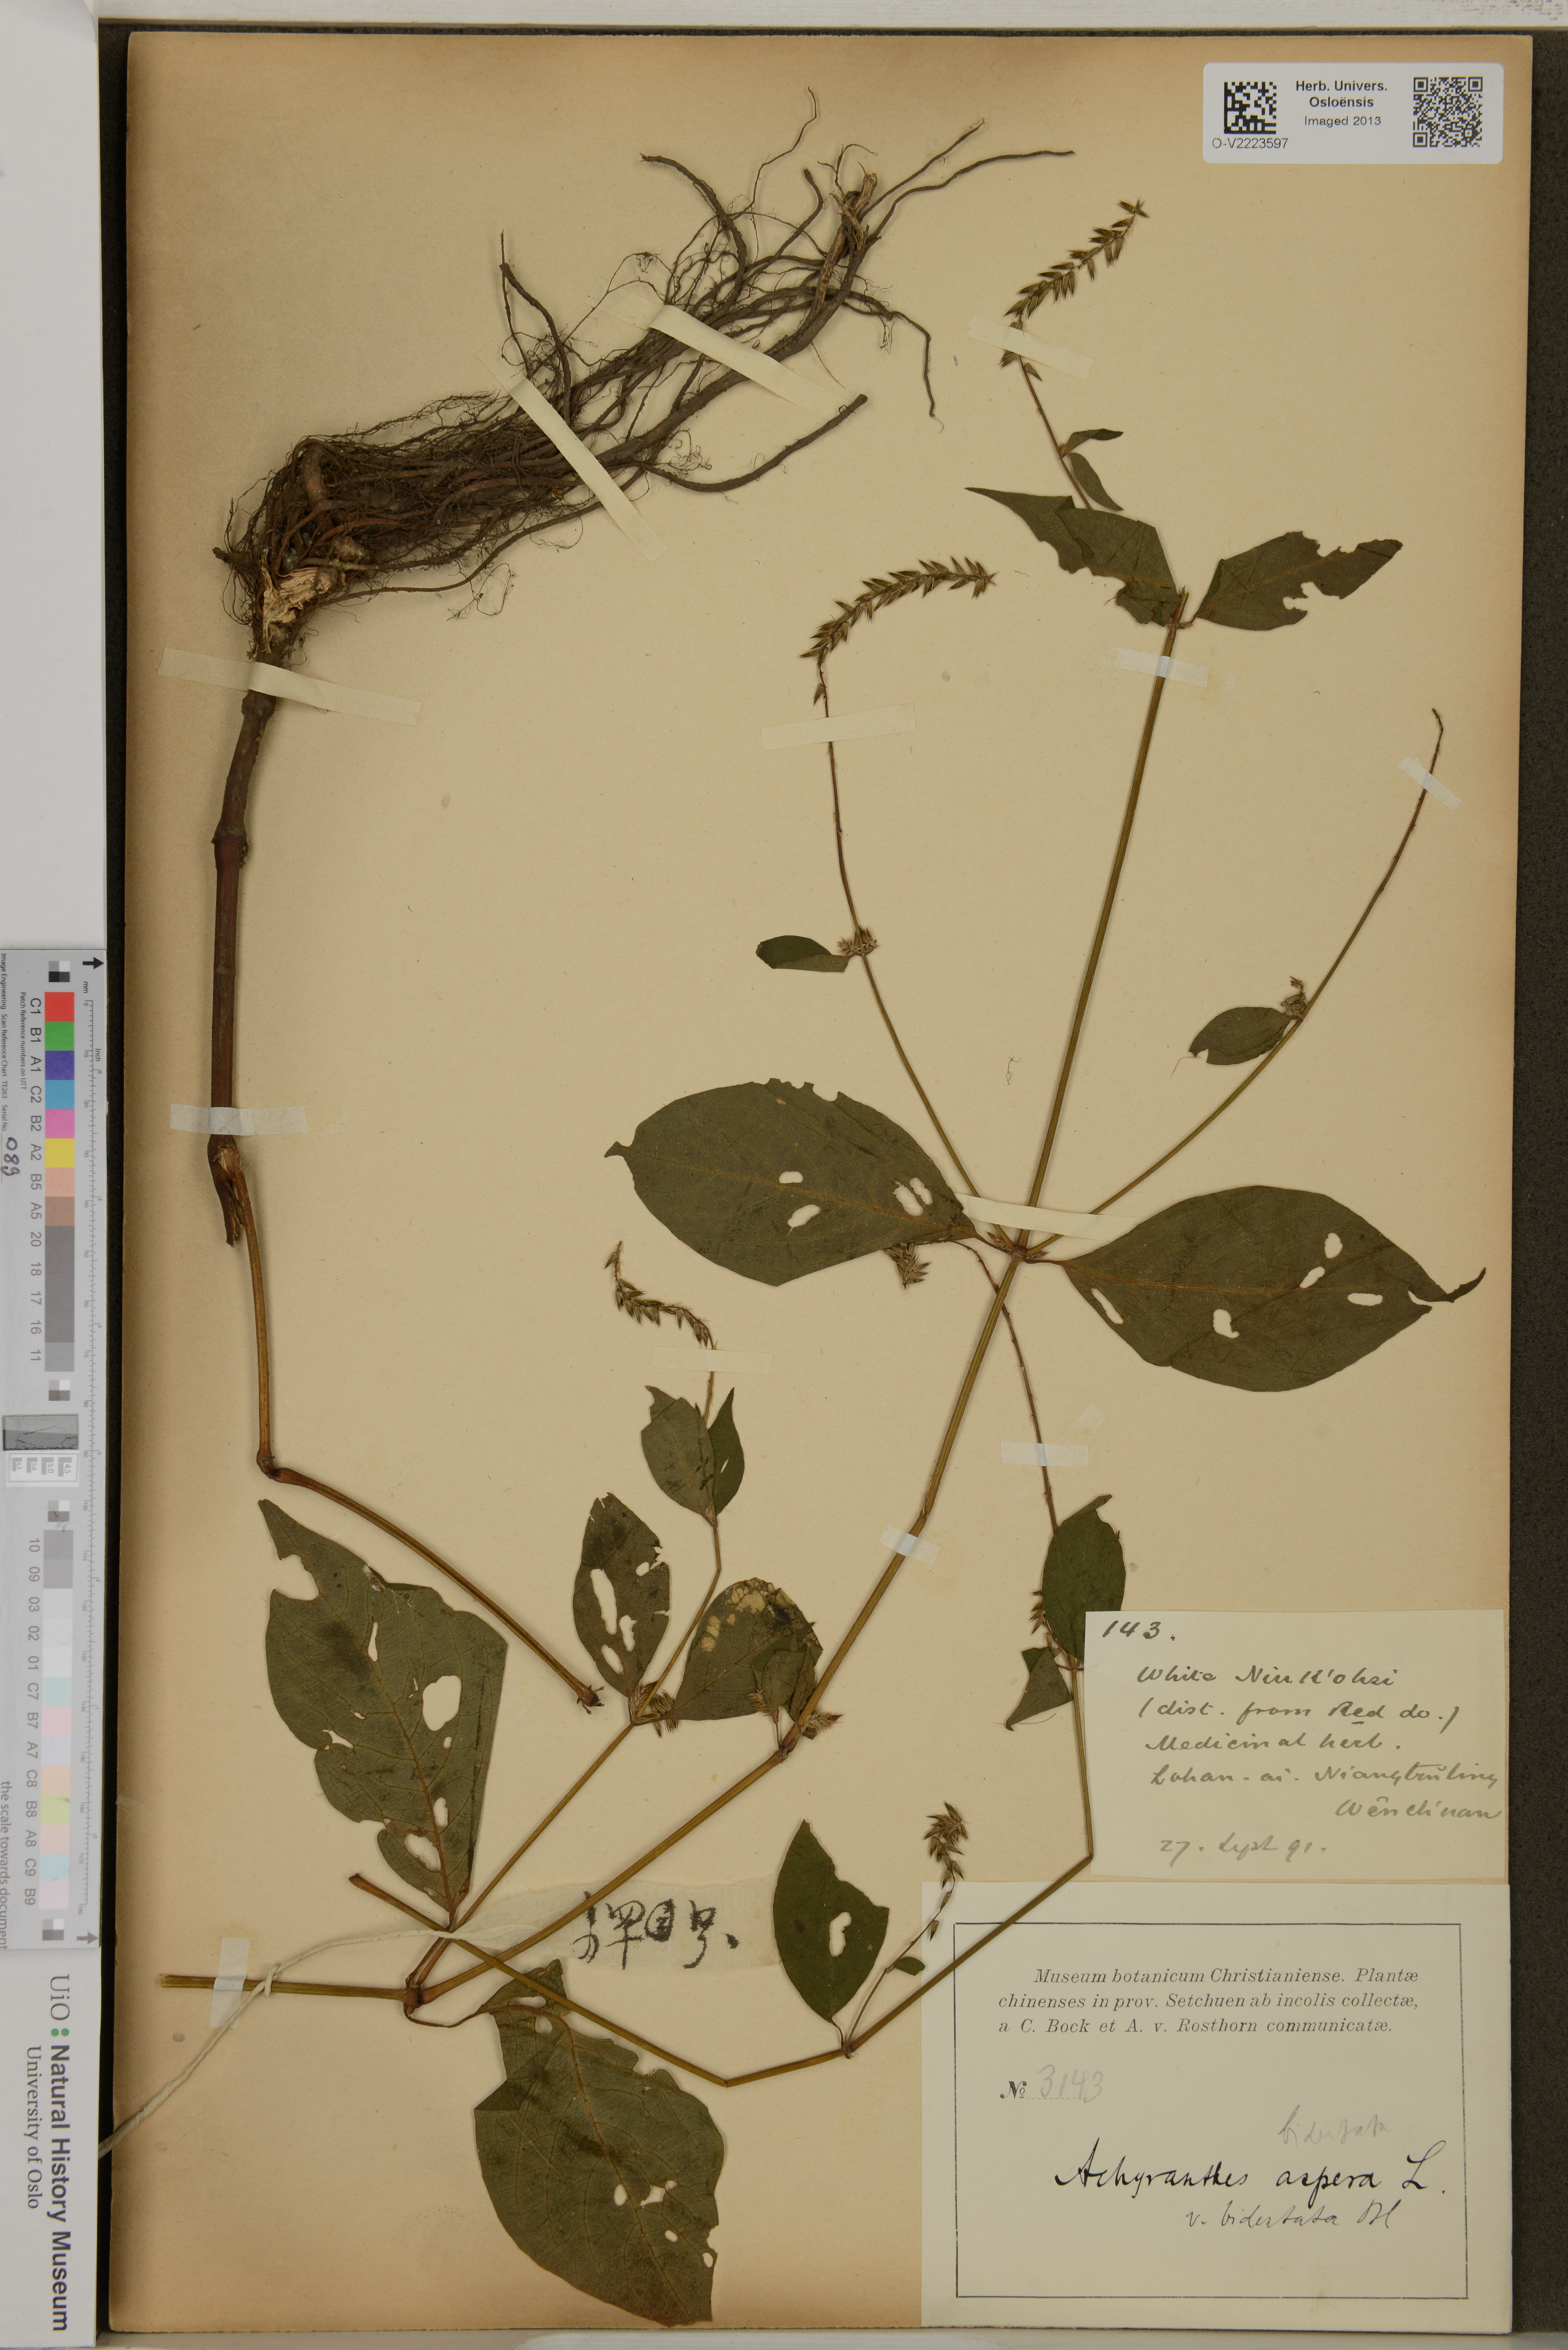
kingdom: Plantae
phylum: Tracheophyta
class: Magnoliopsida
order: Caryophyllales
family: Amaranthaceae
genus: Achyranthes
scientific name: Achyranthes aspera
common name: Devil's horsewhip
